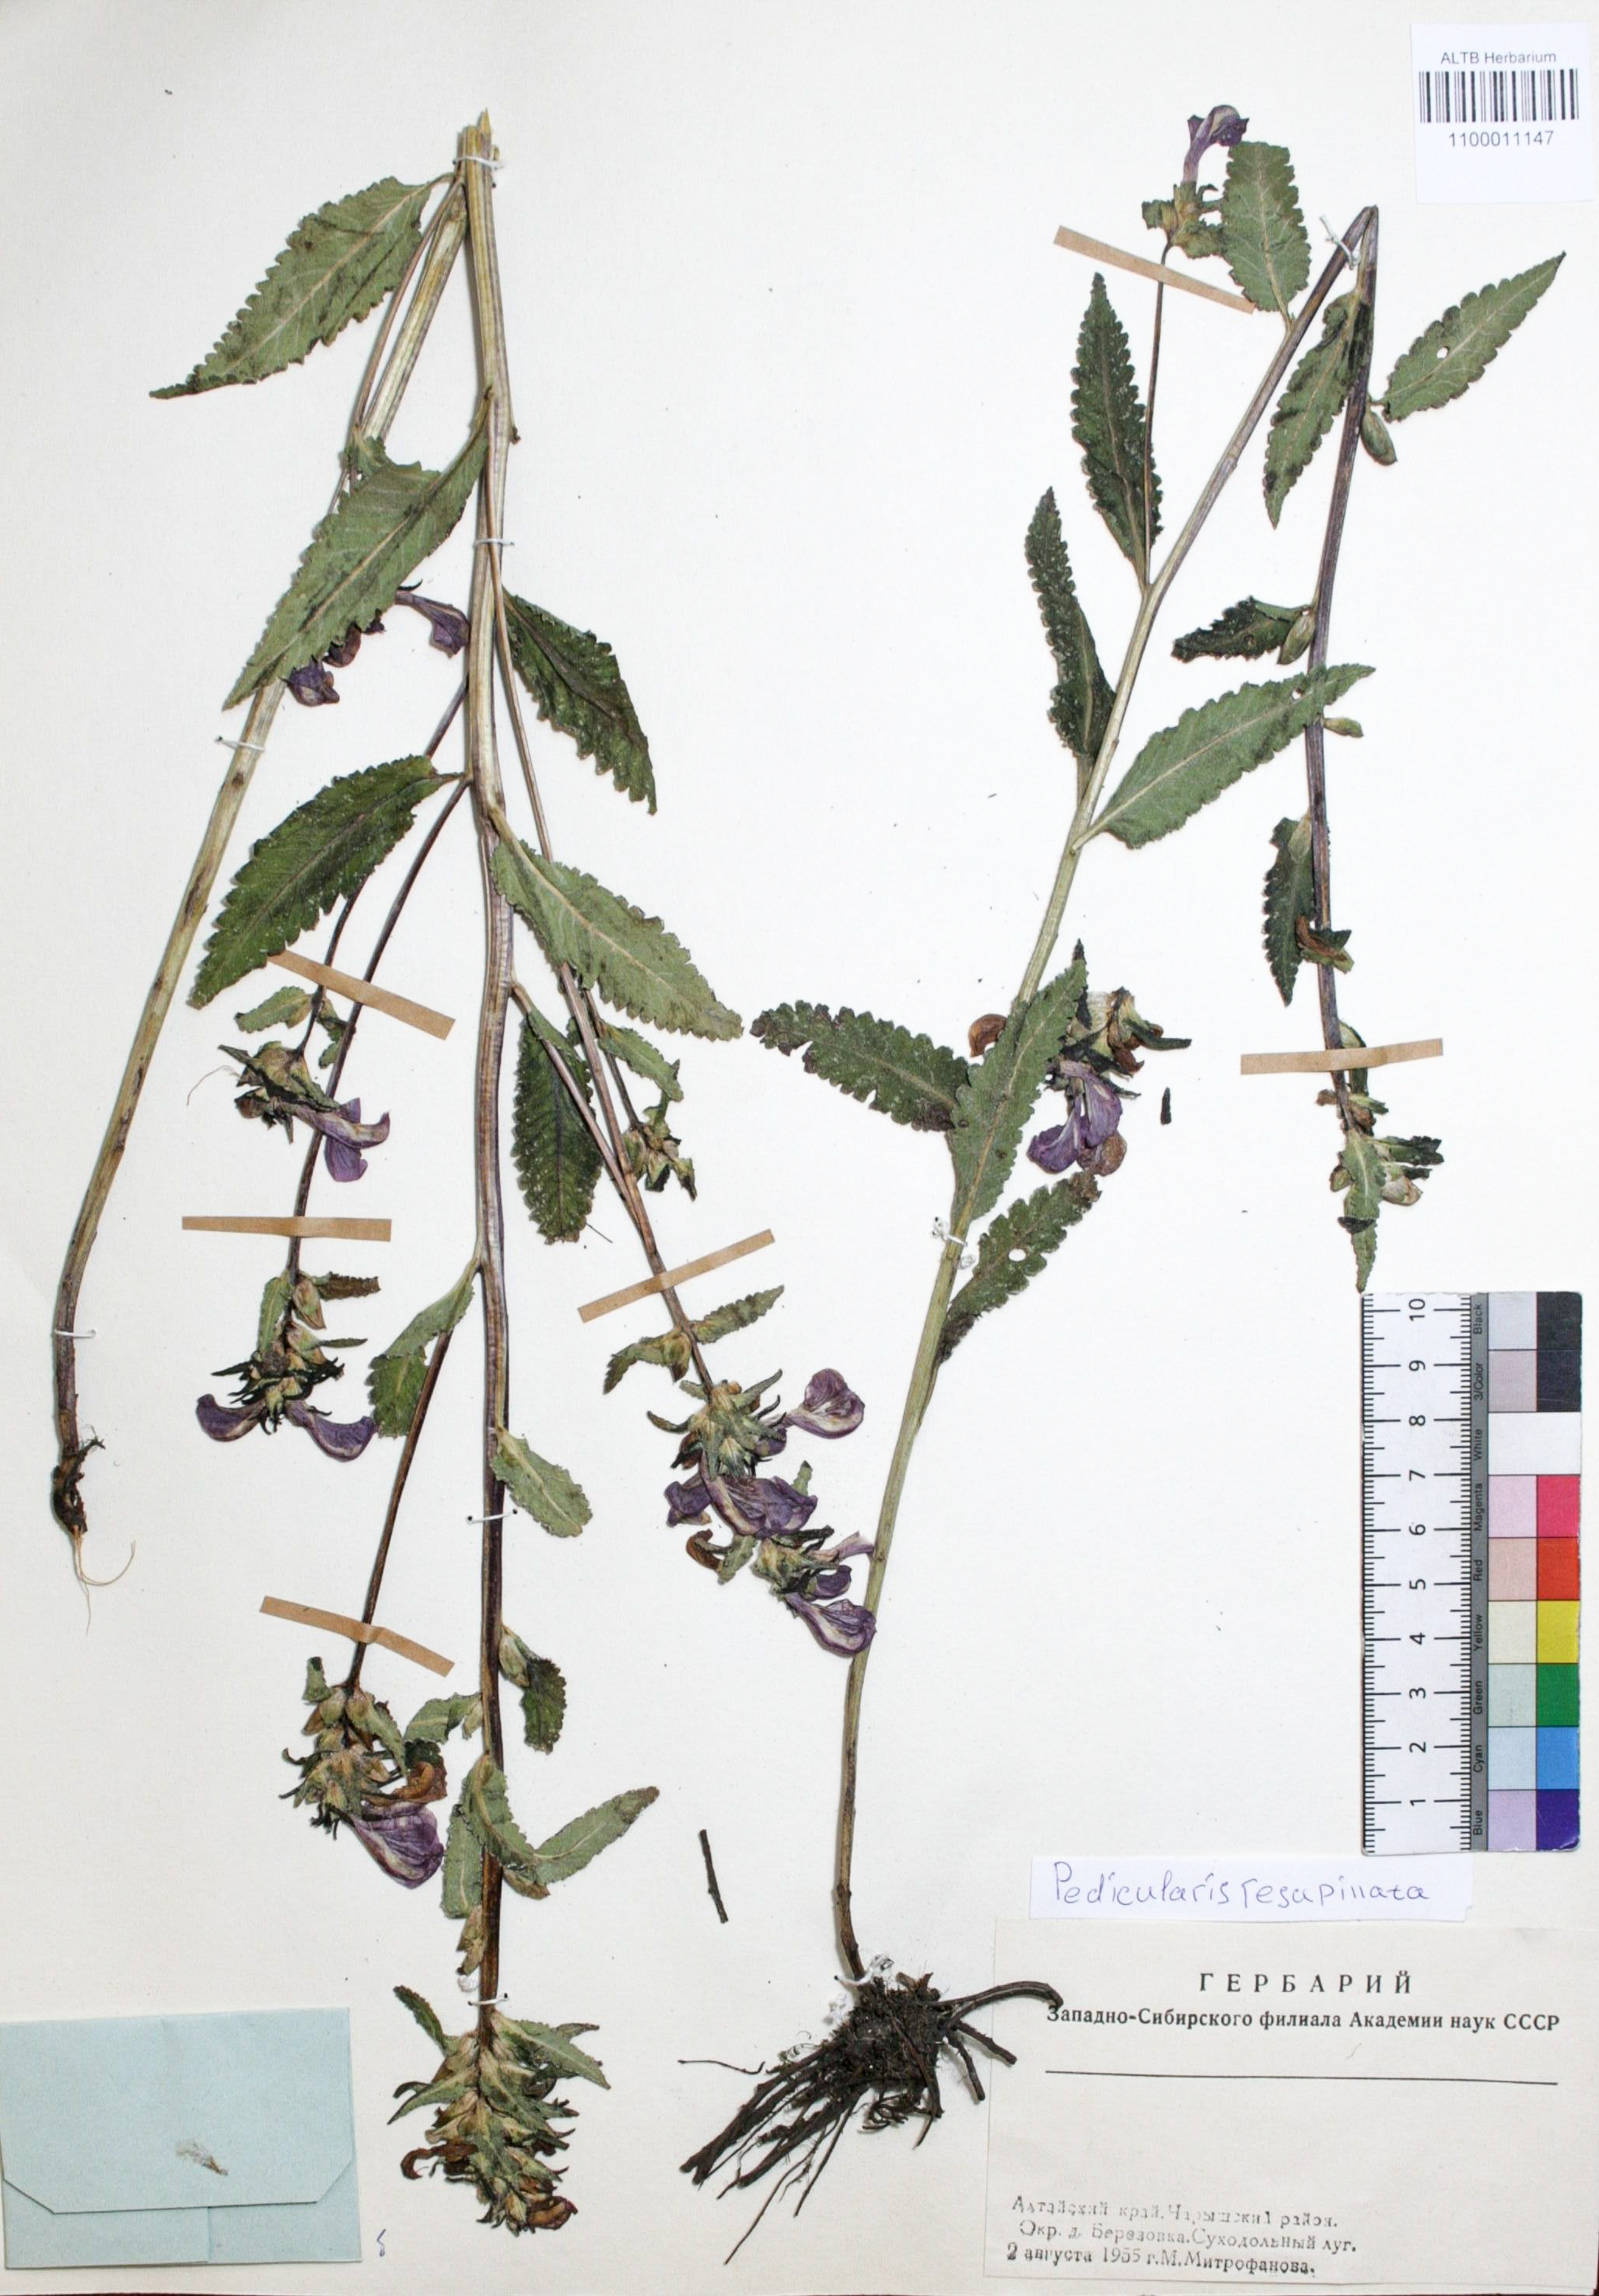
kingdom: Plantae
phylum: Tracheophyta
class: Magnoliopsida
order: Lamiales
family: Orobanchaceae
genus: Pedicularis
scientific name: Pedicularis resupinata
